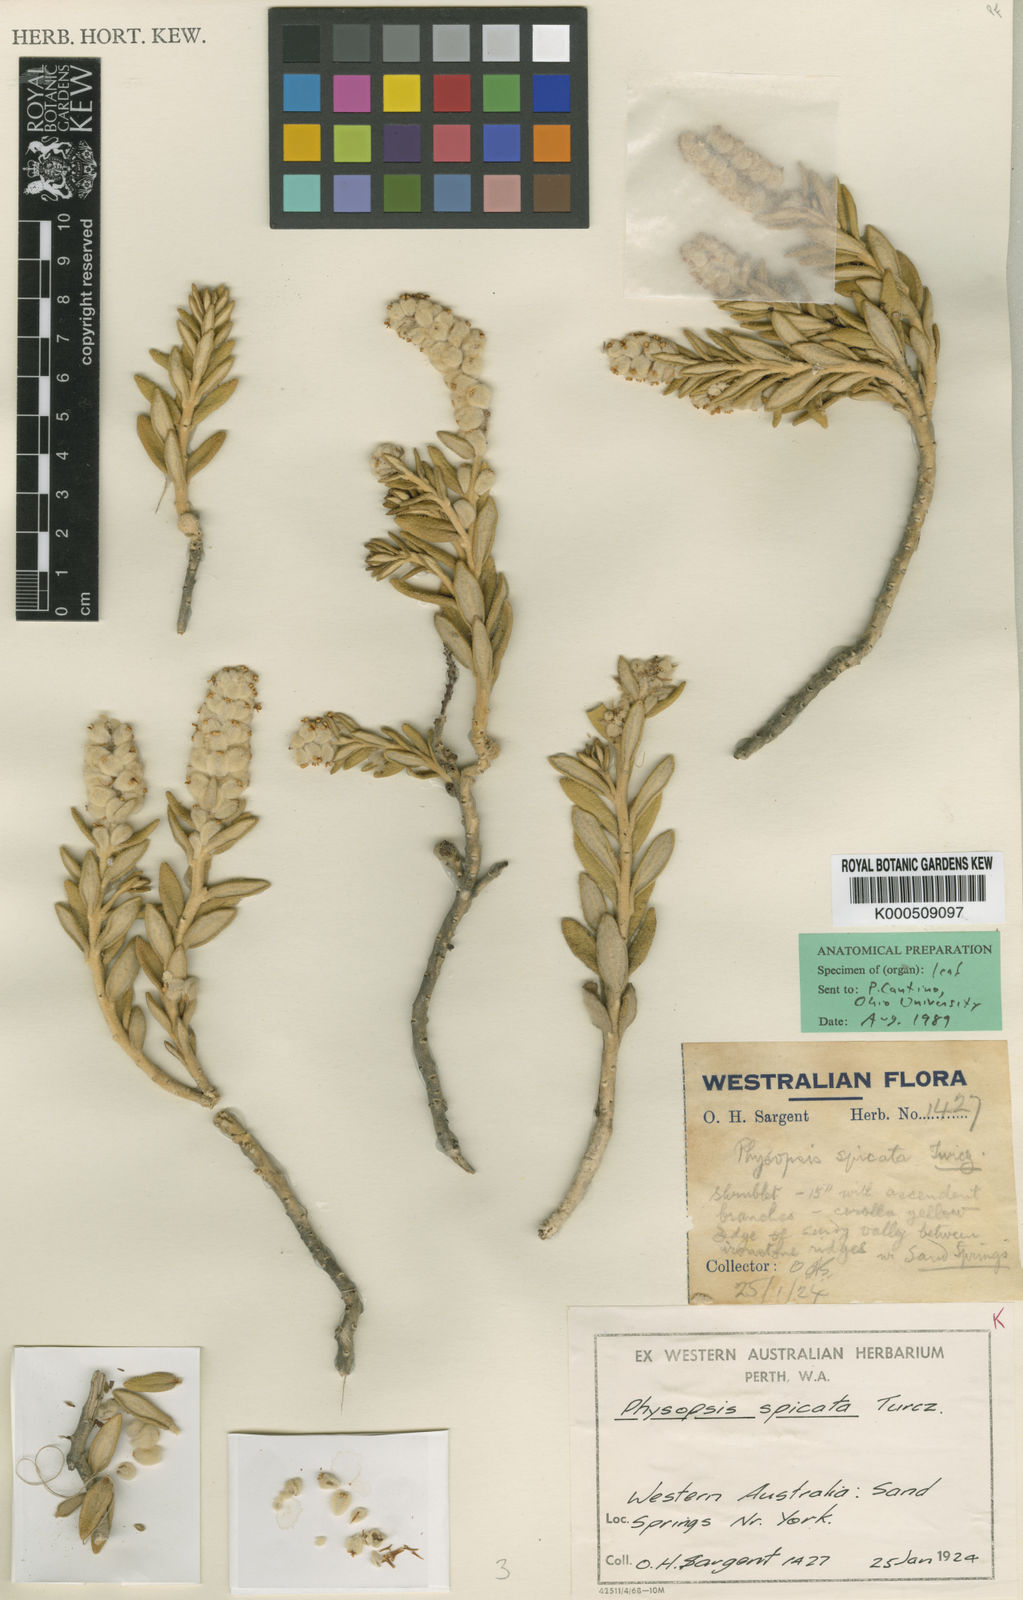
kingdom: Plantae
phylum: Tracheophyta
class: Magnoliopsida
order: Lamiales
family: Lamiaceae
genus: Physopsis
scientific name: Physopsis spicata
